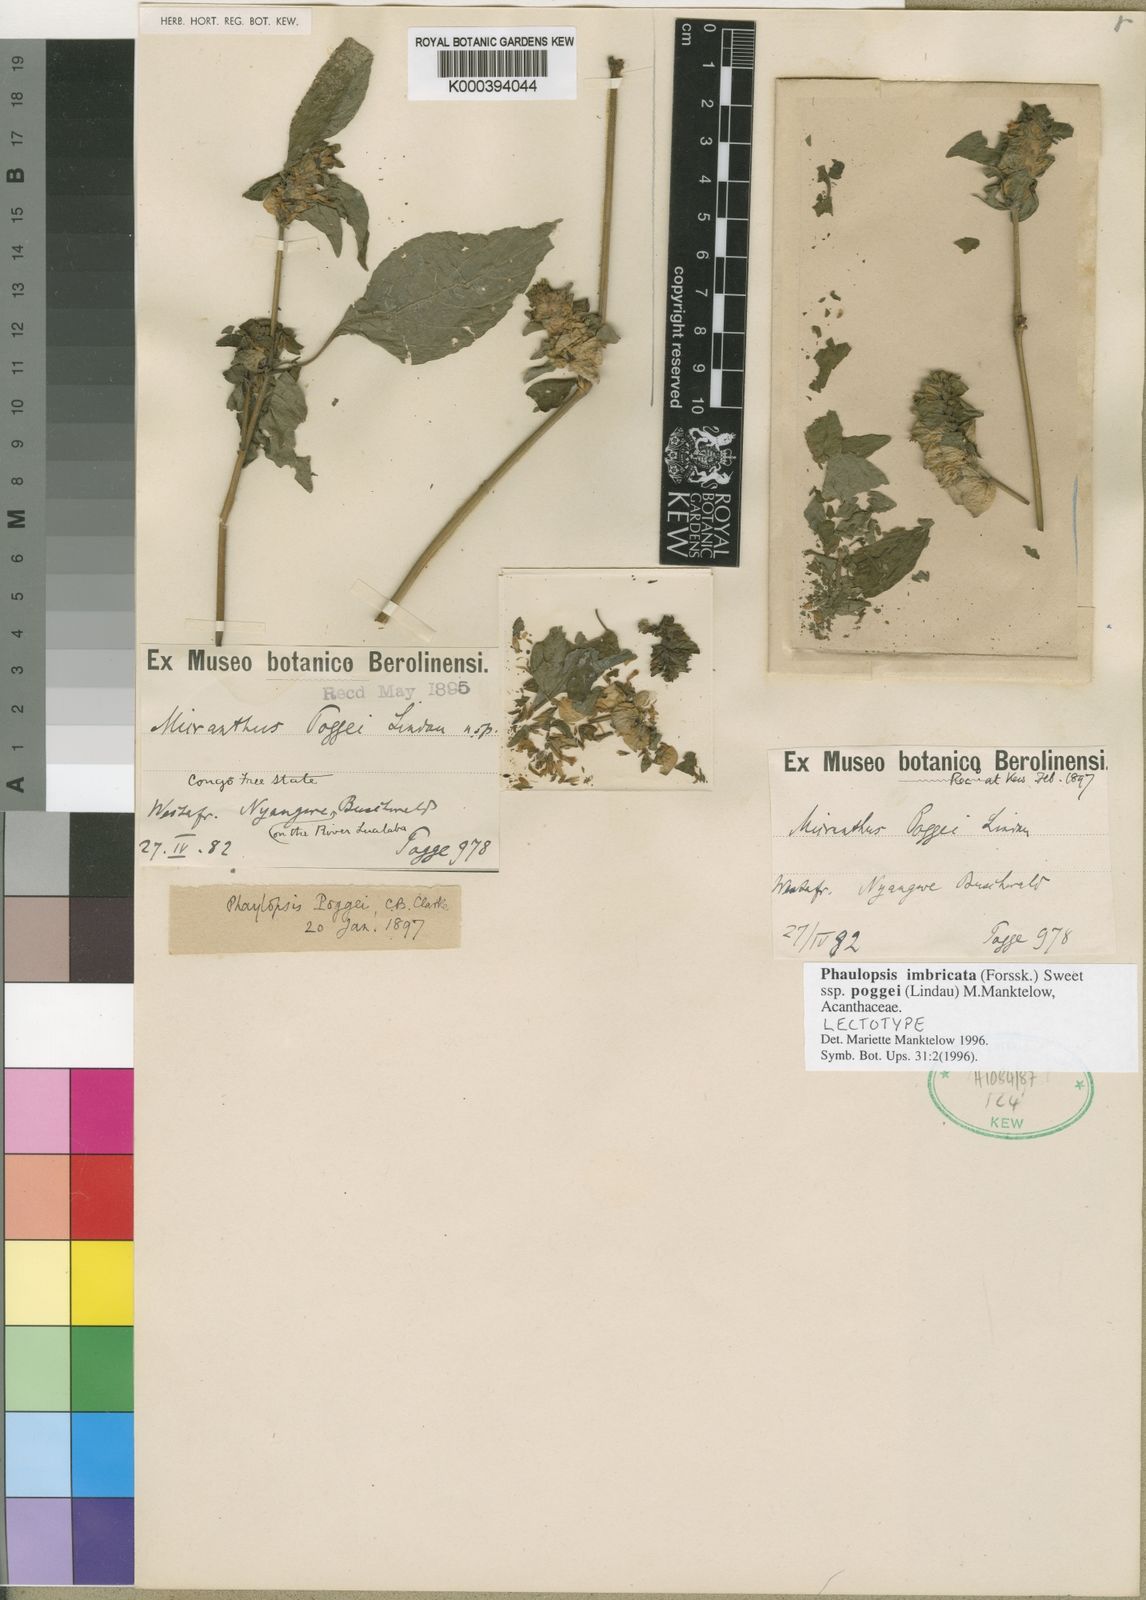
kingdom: Plantae
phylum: Tracheophyta
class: Magnoliopsida
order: Lamiales
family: Acanthaceae
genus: Phaulopsis
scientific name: Phaulopsis imbricata
